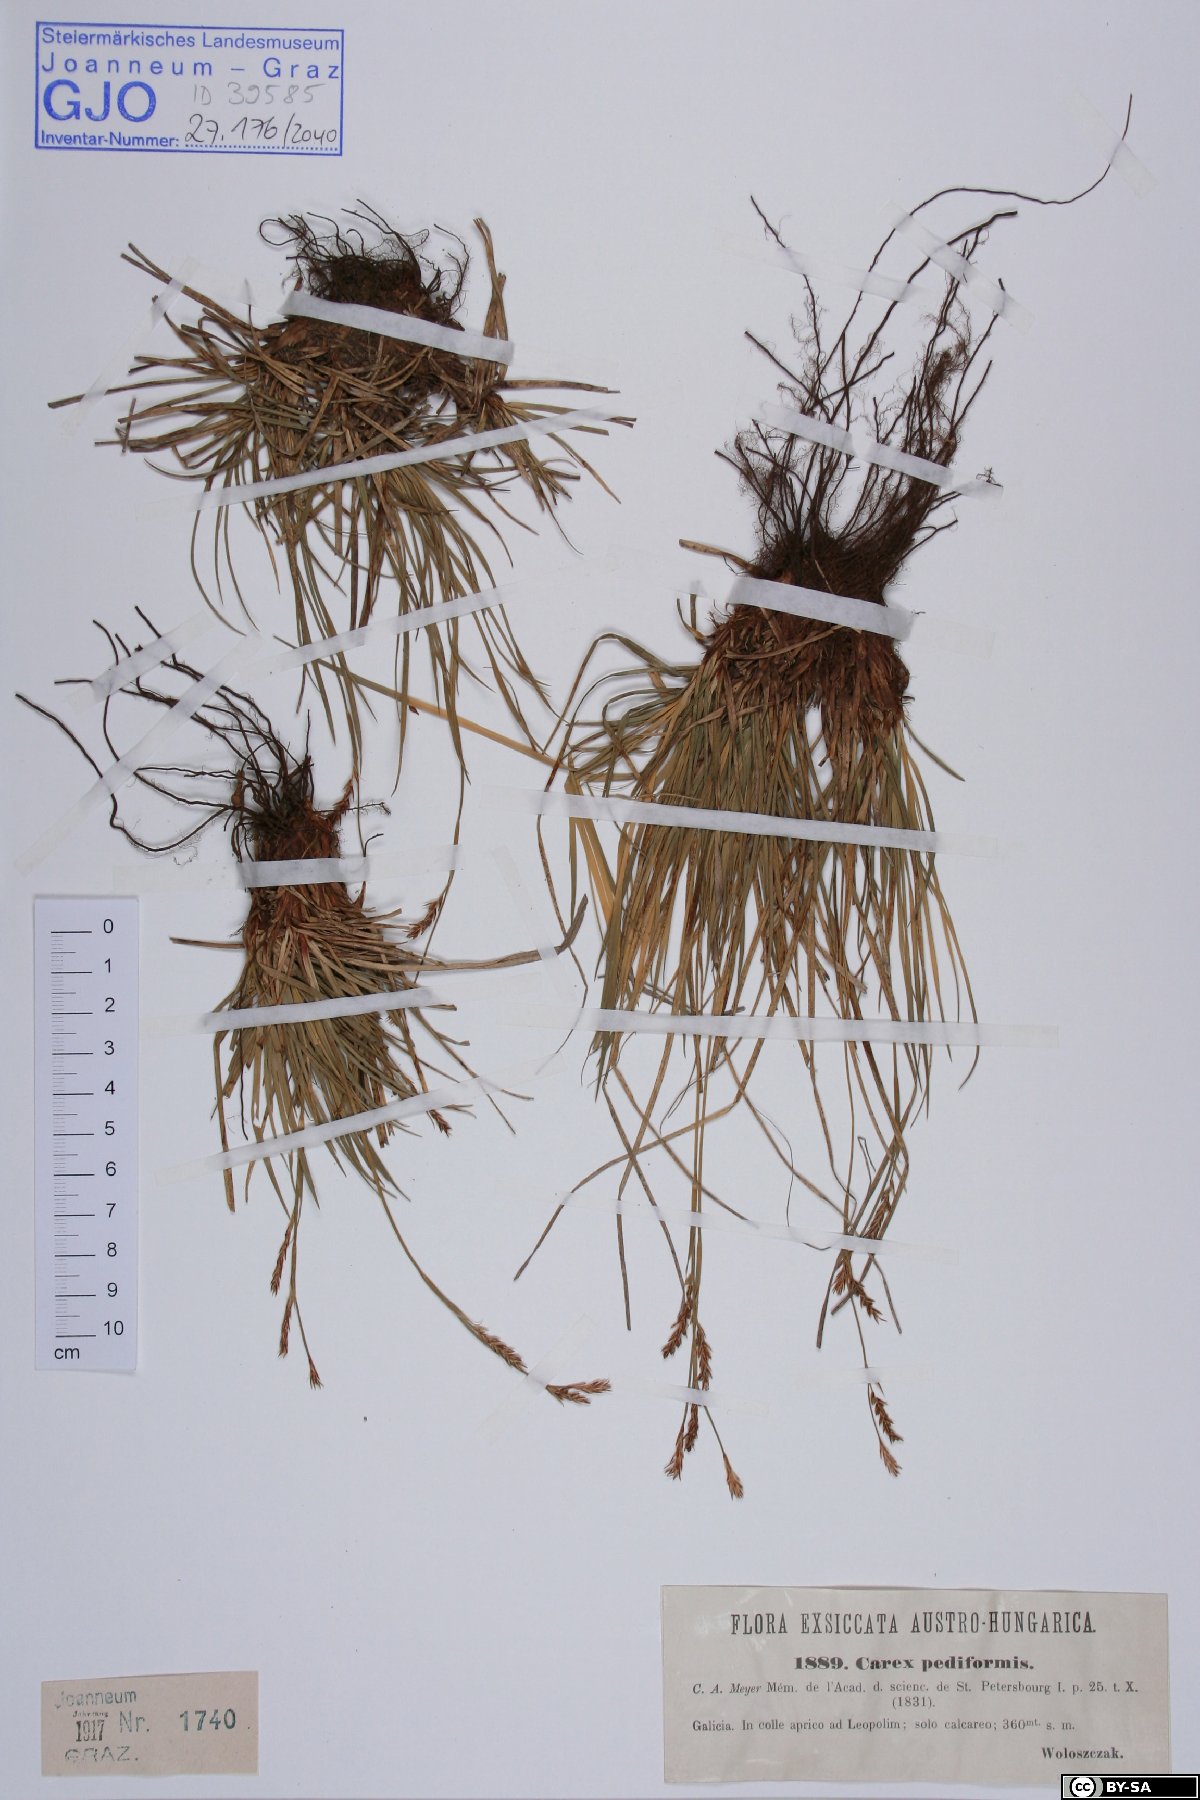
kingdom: Plantae
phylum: Tracheophyta
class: Liliopsida
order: Poales
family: Cyperaceae
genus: Carex
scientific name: Carex pediformis
